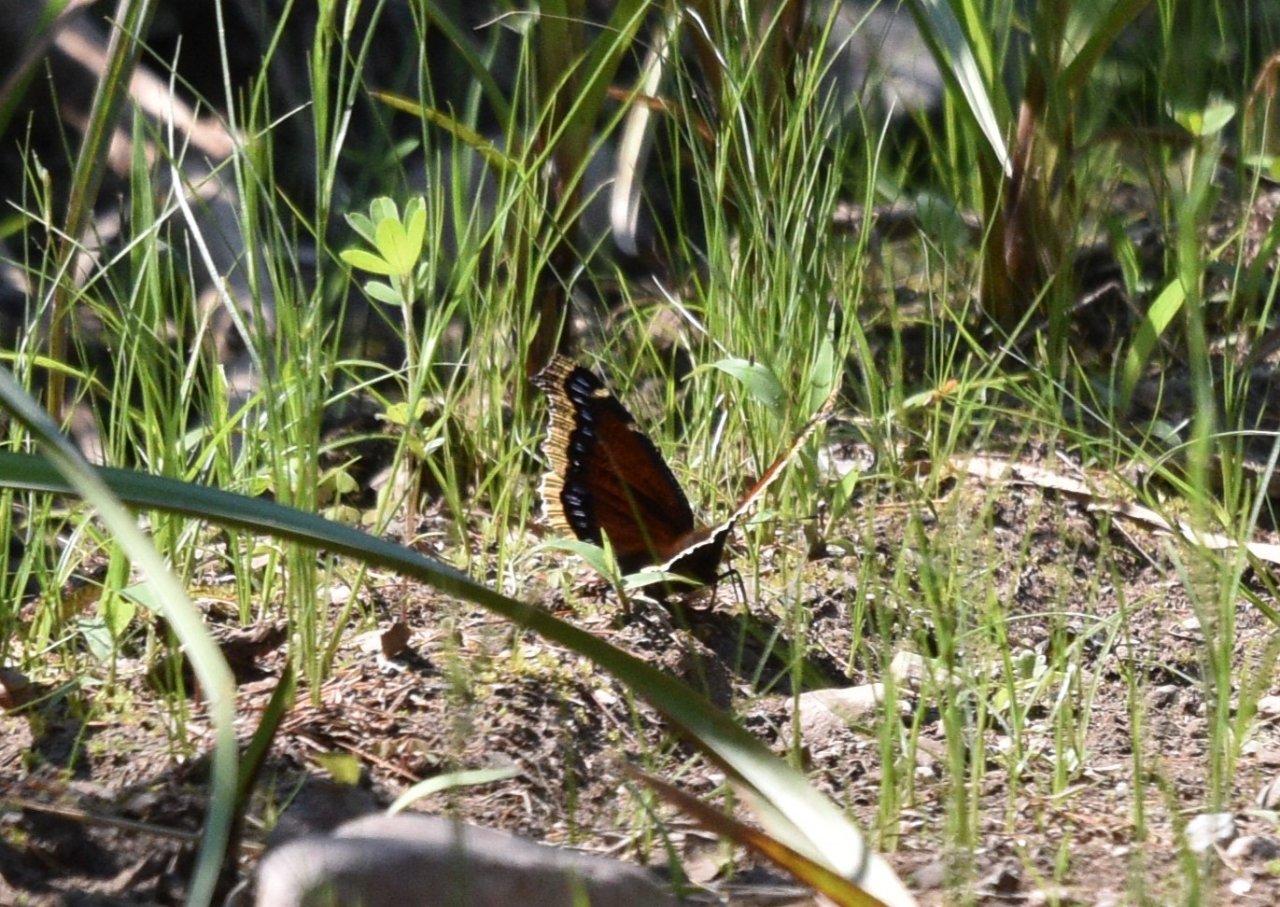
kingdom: Animalia
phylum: Arthropoda
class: Insecta
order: Lepidoptera
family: Nymphalidae
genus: Nymphalis
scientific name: Nymphalis antiopa
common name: Mourning Cloak
